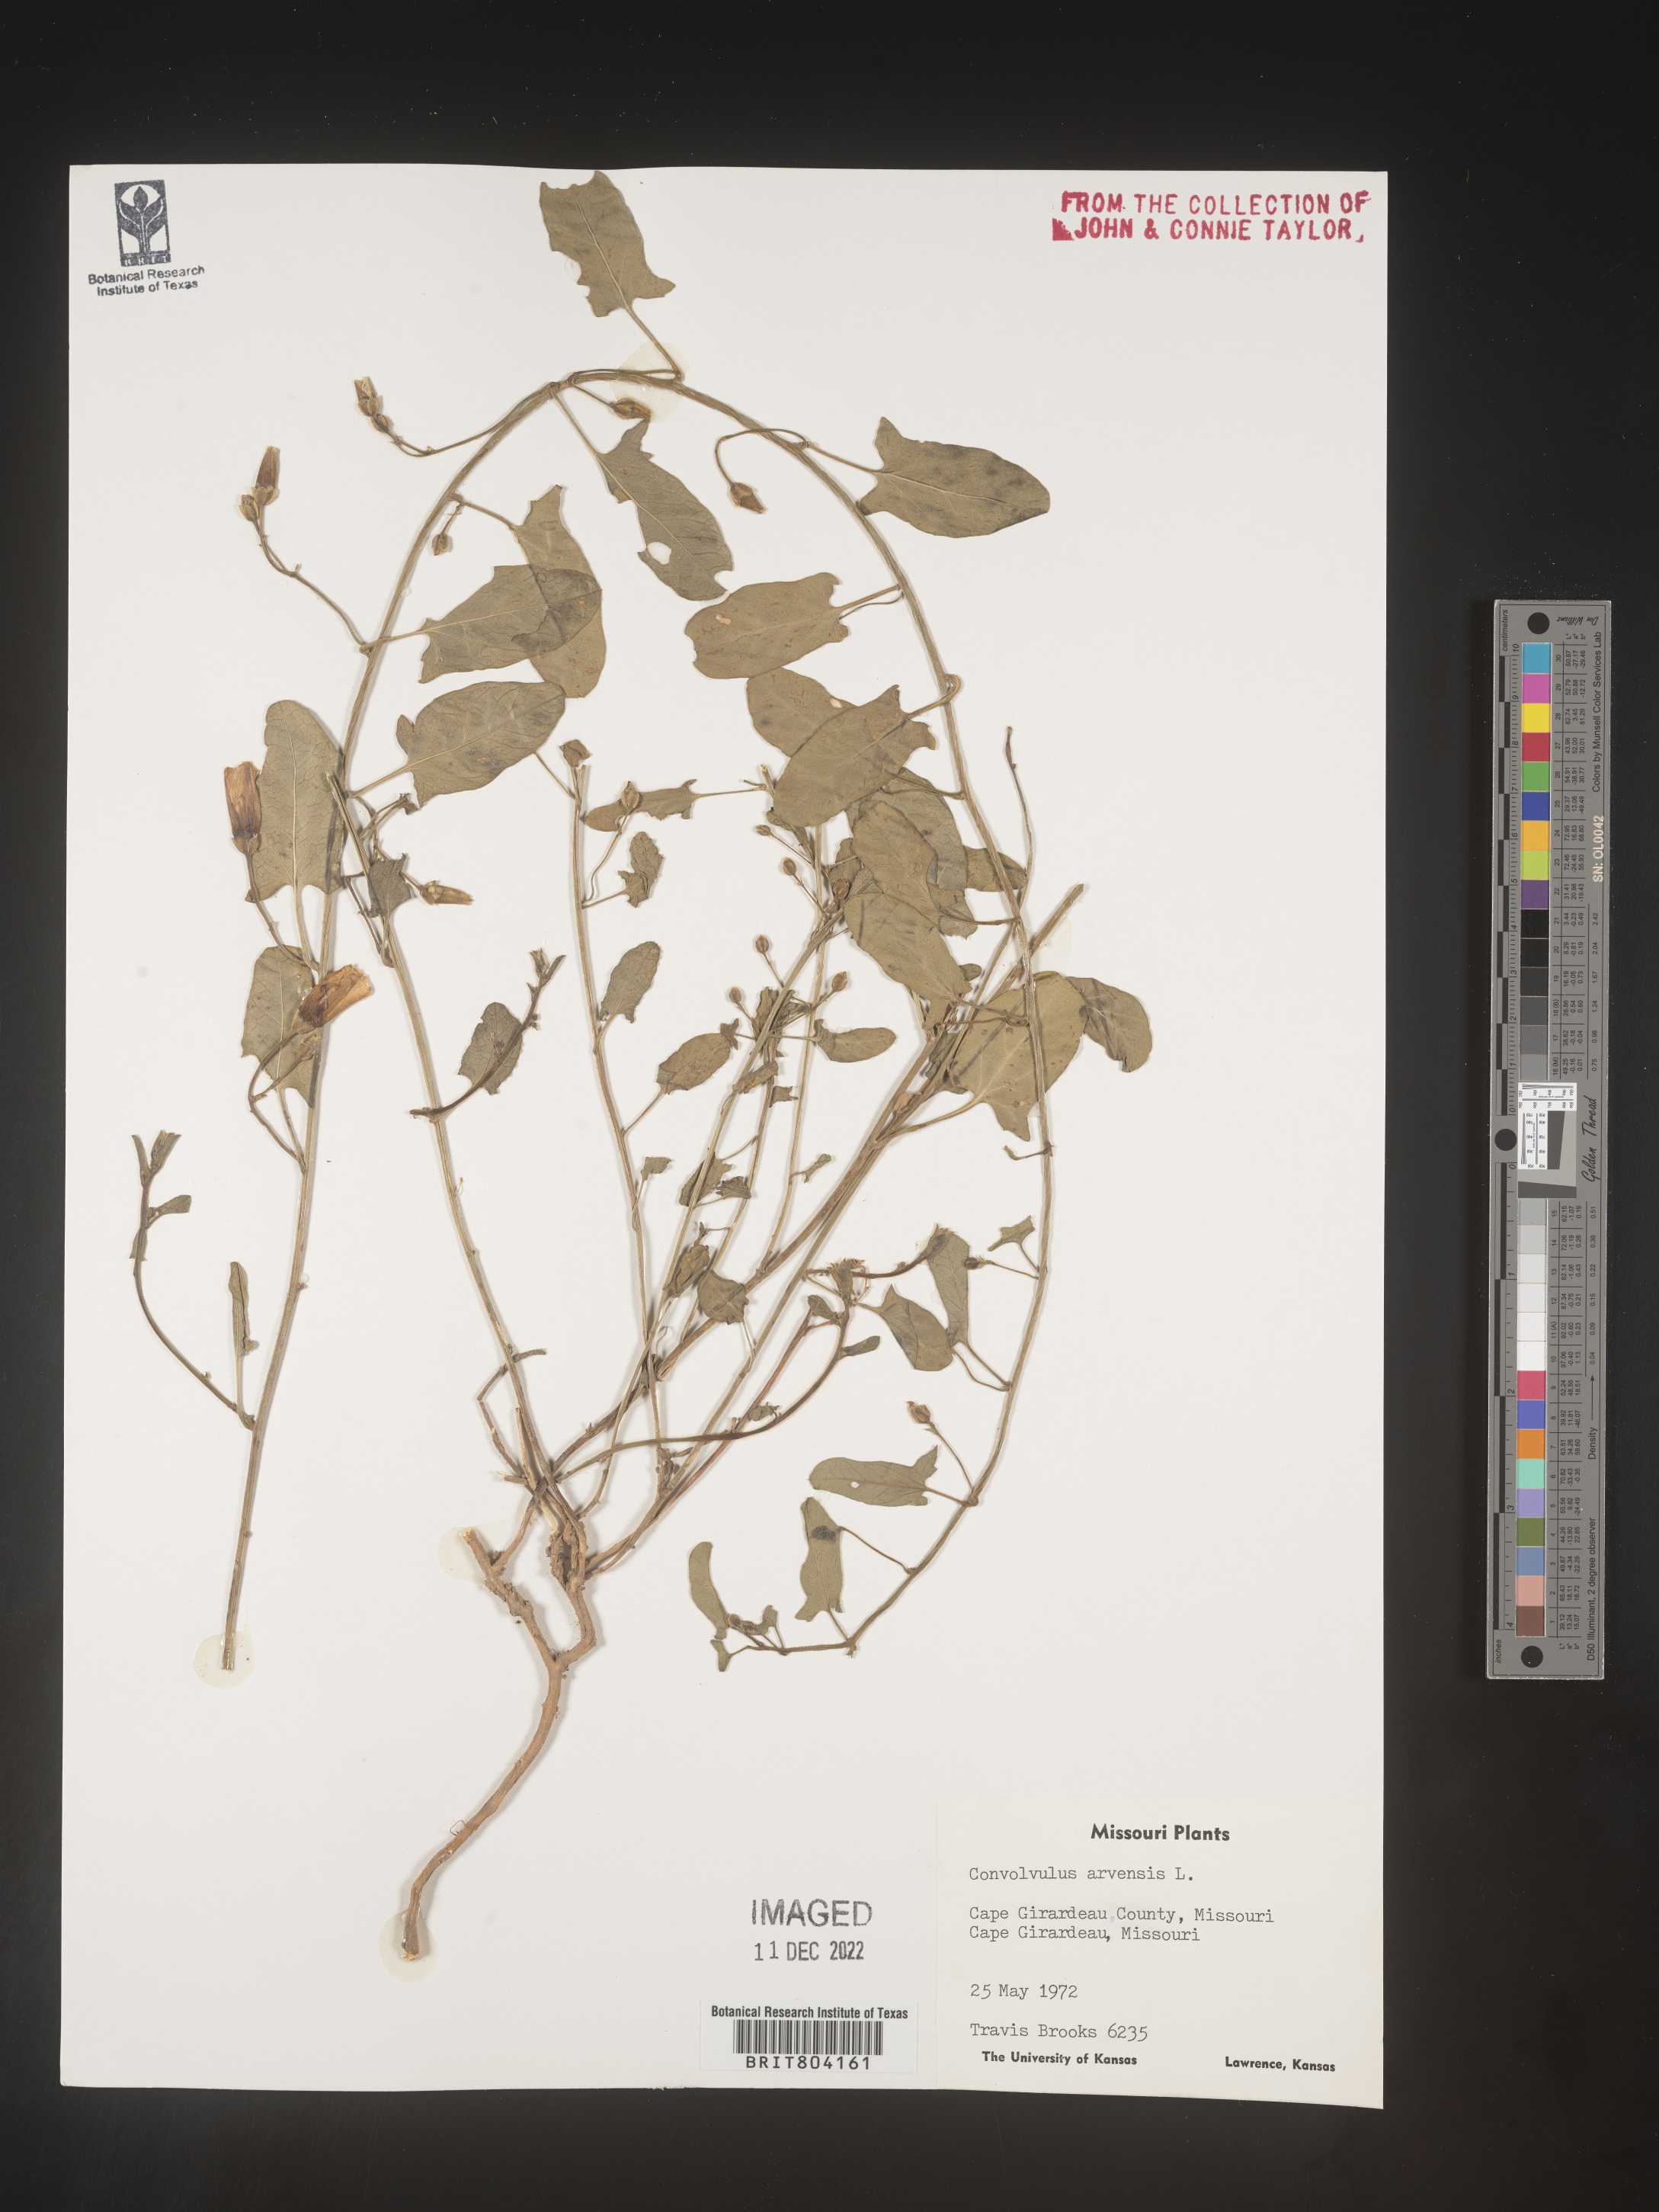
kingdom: Plantae
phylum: Tracheophyta
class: Magnoliopsida
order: Solanales
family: Convolvulaceae
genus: Convolvulus
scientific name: Convolvulus arvensis
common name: Field bindweed
